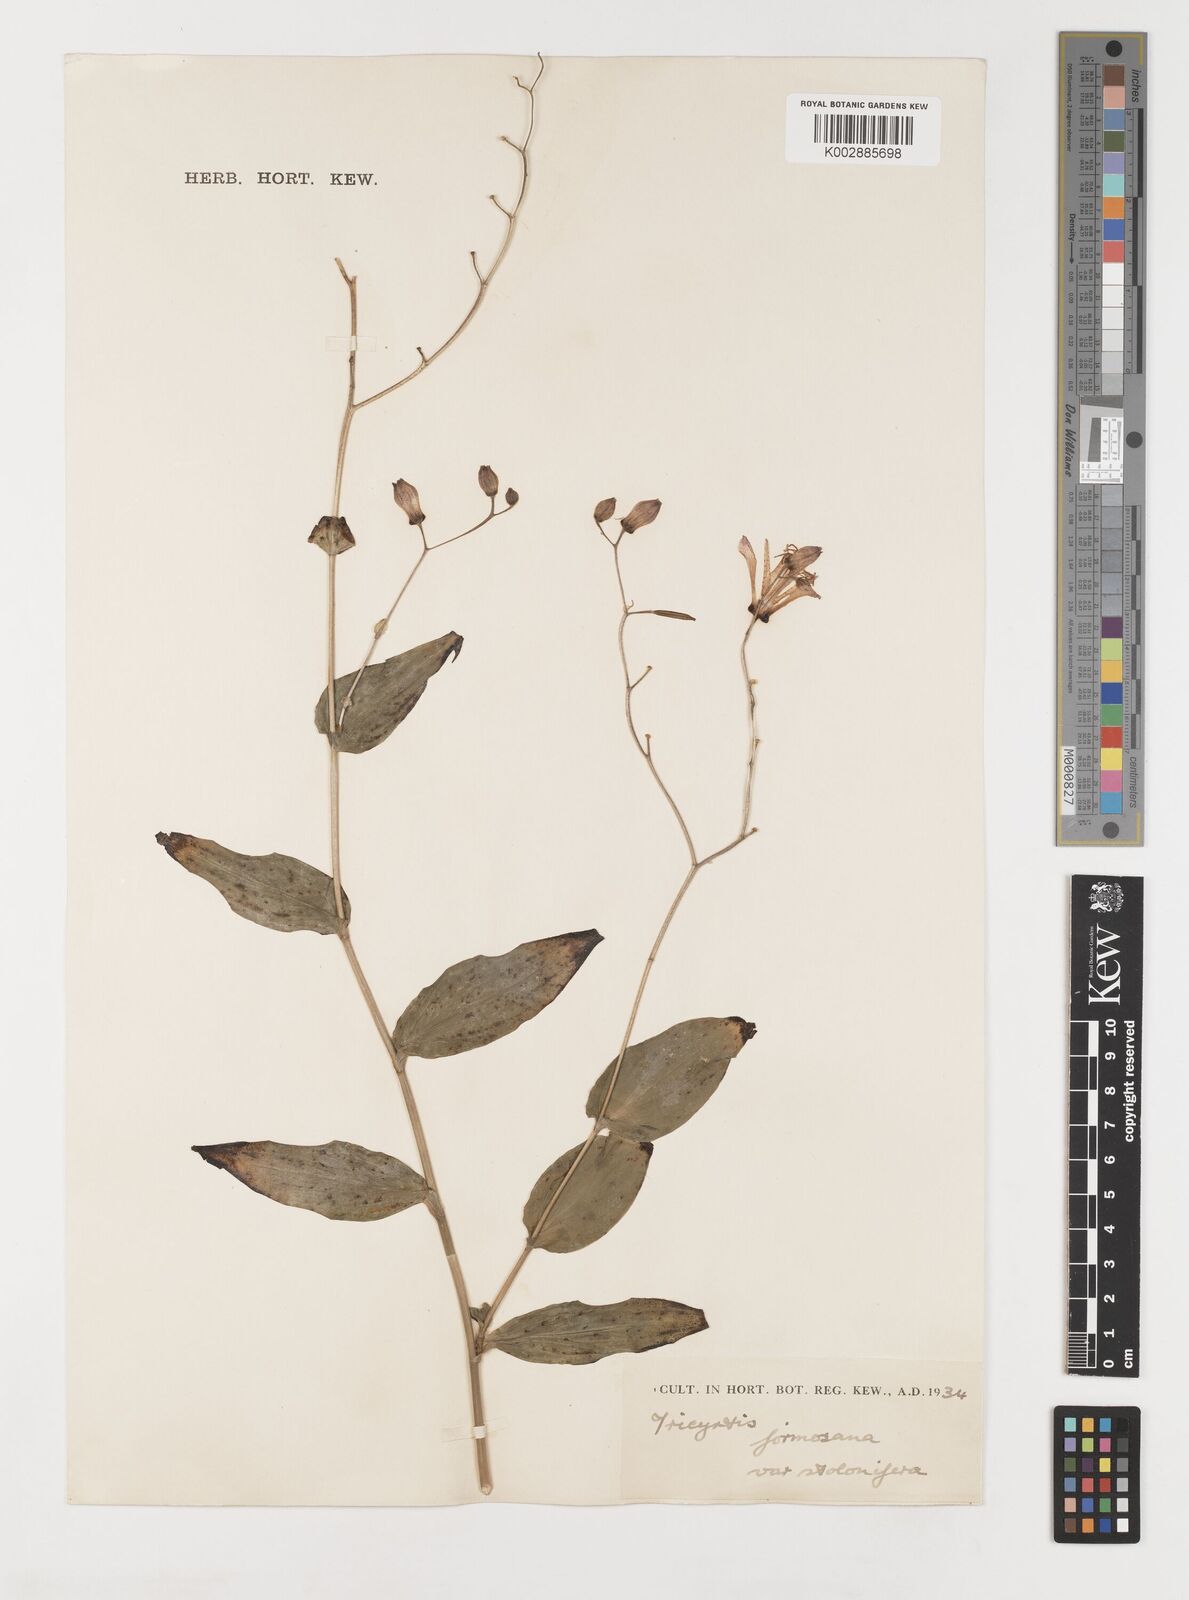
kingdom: Plantae
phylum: Tracheophyta
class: Liliopsida
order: Liliales
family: Liliaceae
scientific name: Liliaceae
